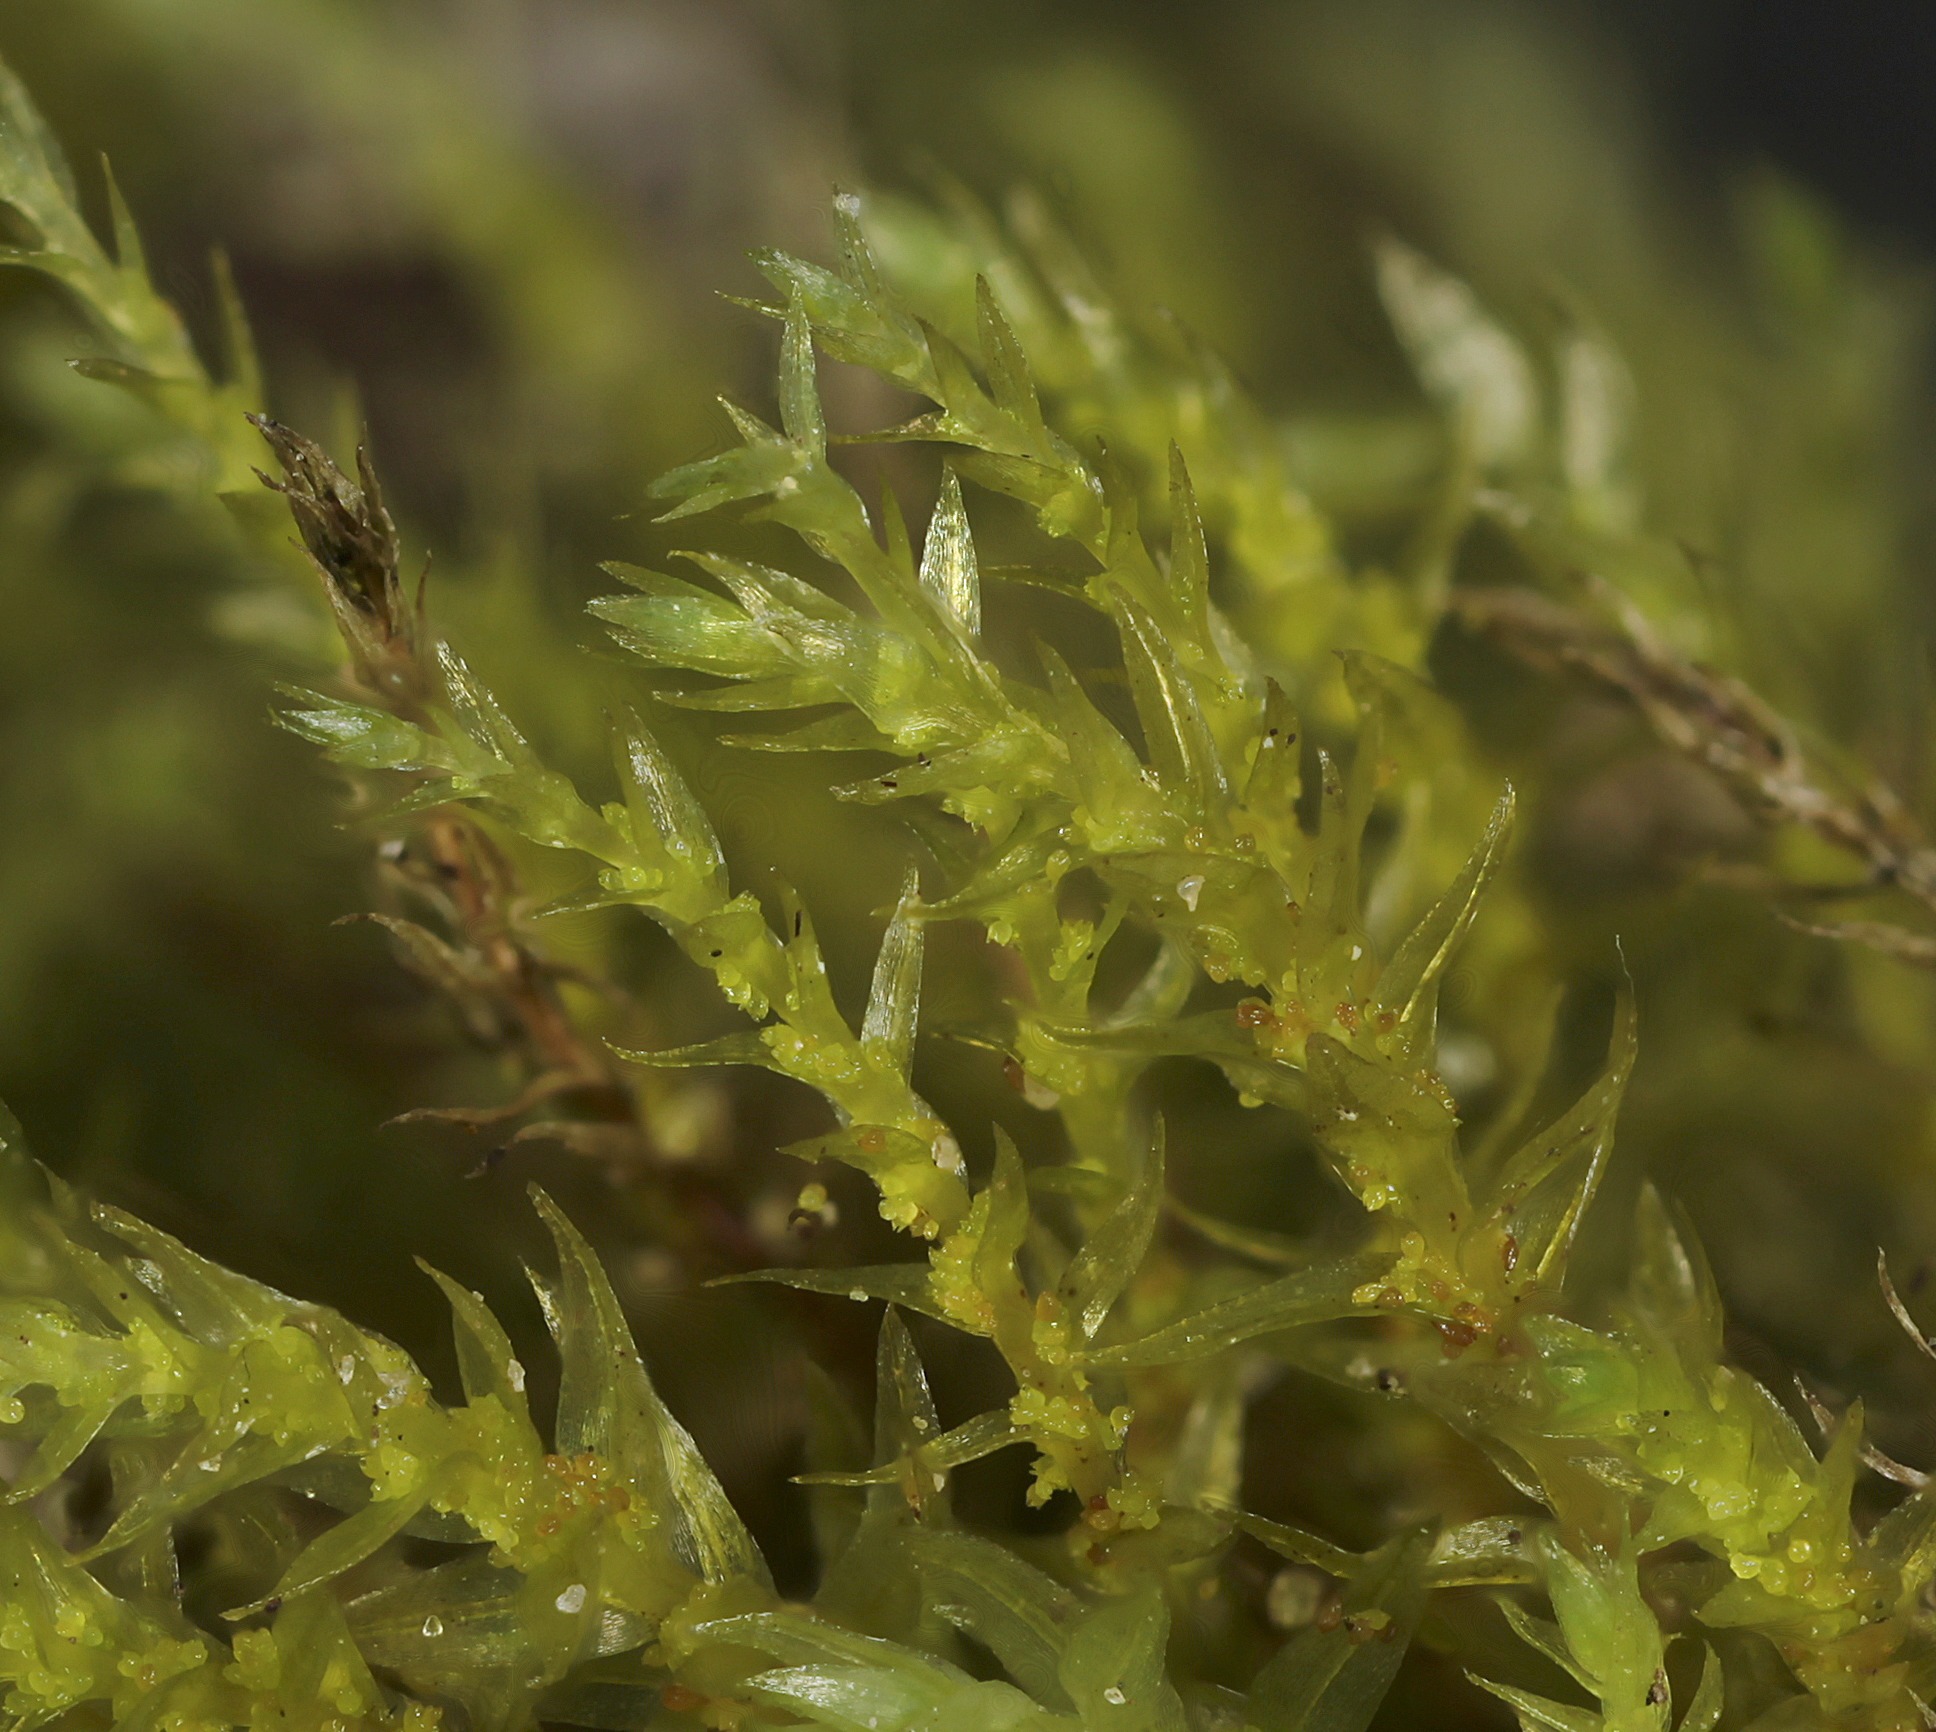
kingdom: Plantae
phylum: Bryophyta
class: Bryopsida
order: Bryales
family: Mniaceae
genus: Pohlia
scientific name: Pohlia camptotrachela
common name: Fin nikkemos
